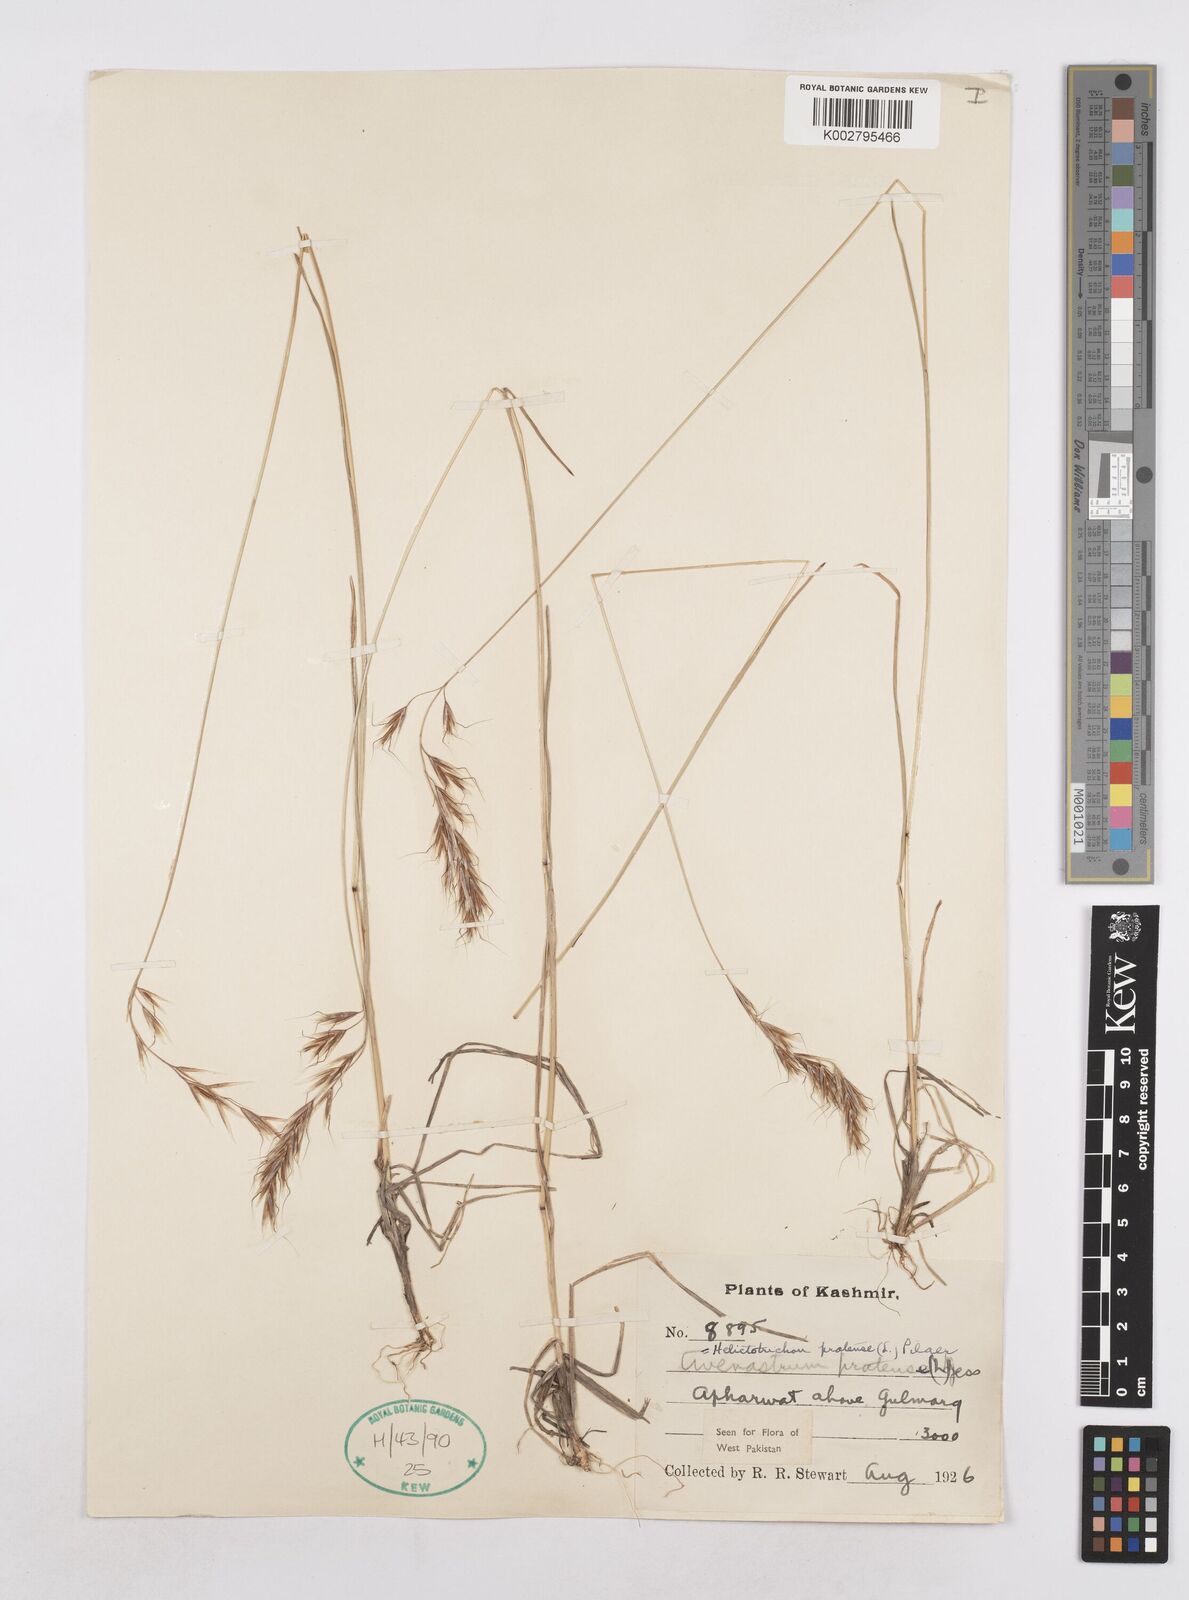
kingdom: Plantae
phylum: Tracheophyta
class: Liliopsida
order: Poales
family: Poaceae
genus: Helictochloa
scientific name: Helictochloa pratensis
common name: Meadow oat grass
